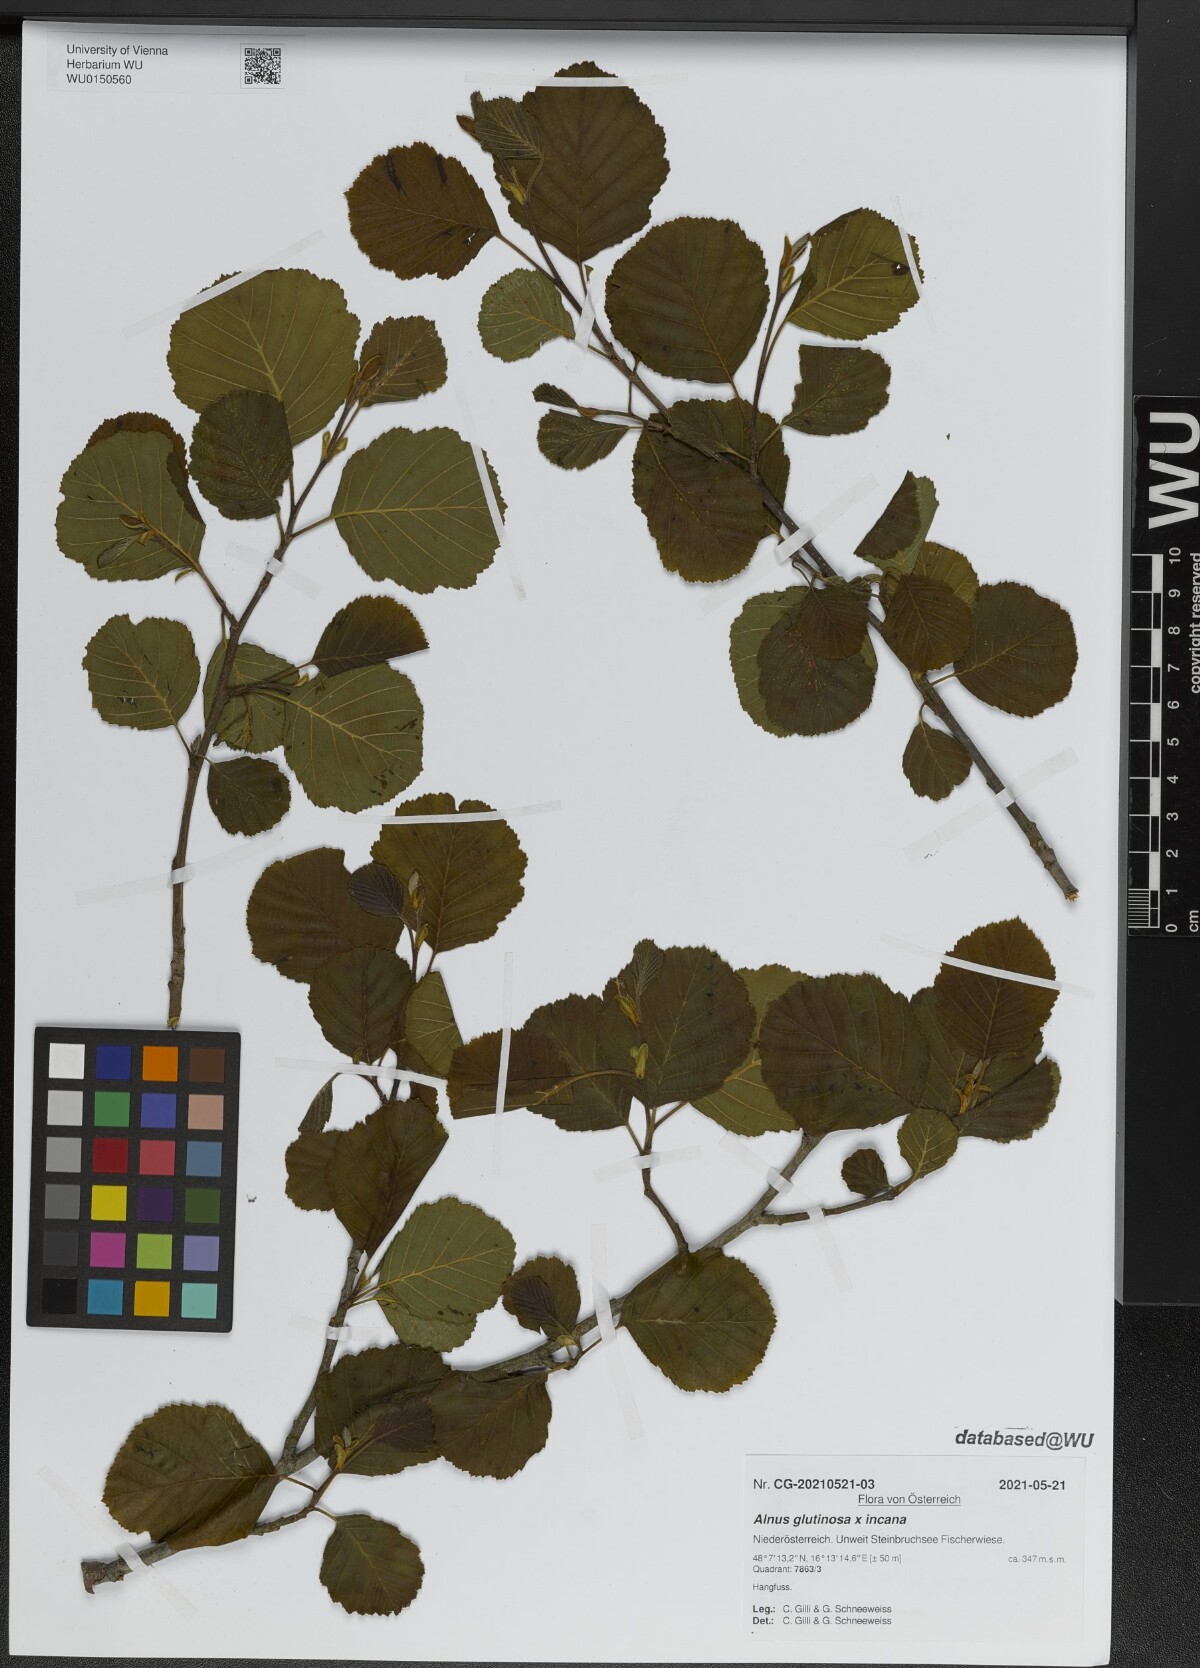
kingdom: Plantae
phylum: Tracheophyta
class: Magnoliopsida
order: Fagales
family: Betulaceae
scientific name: Betulaceae
